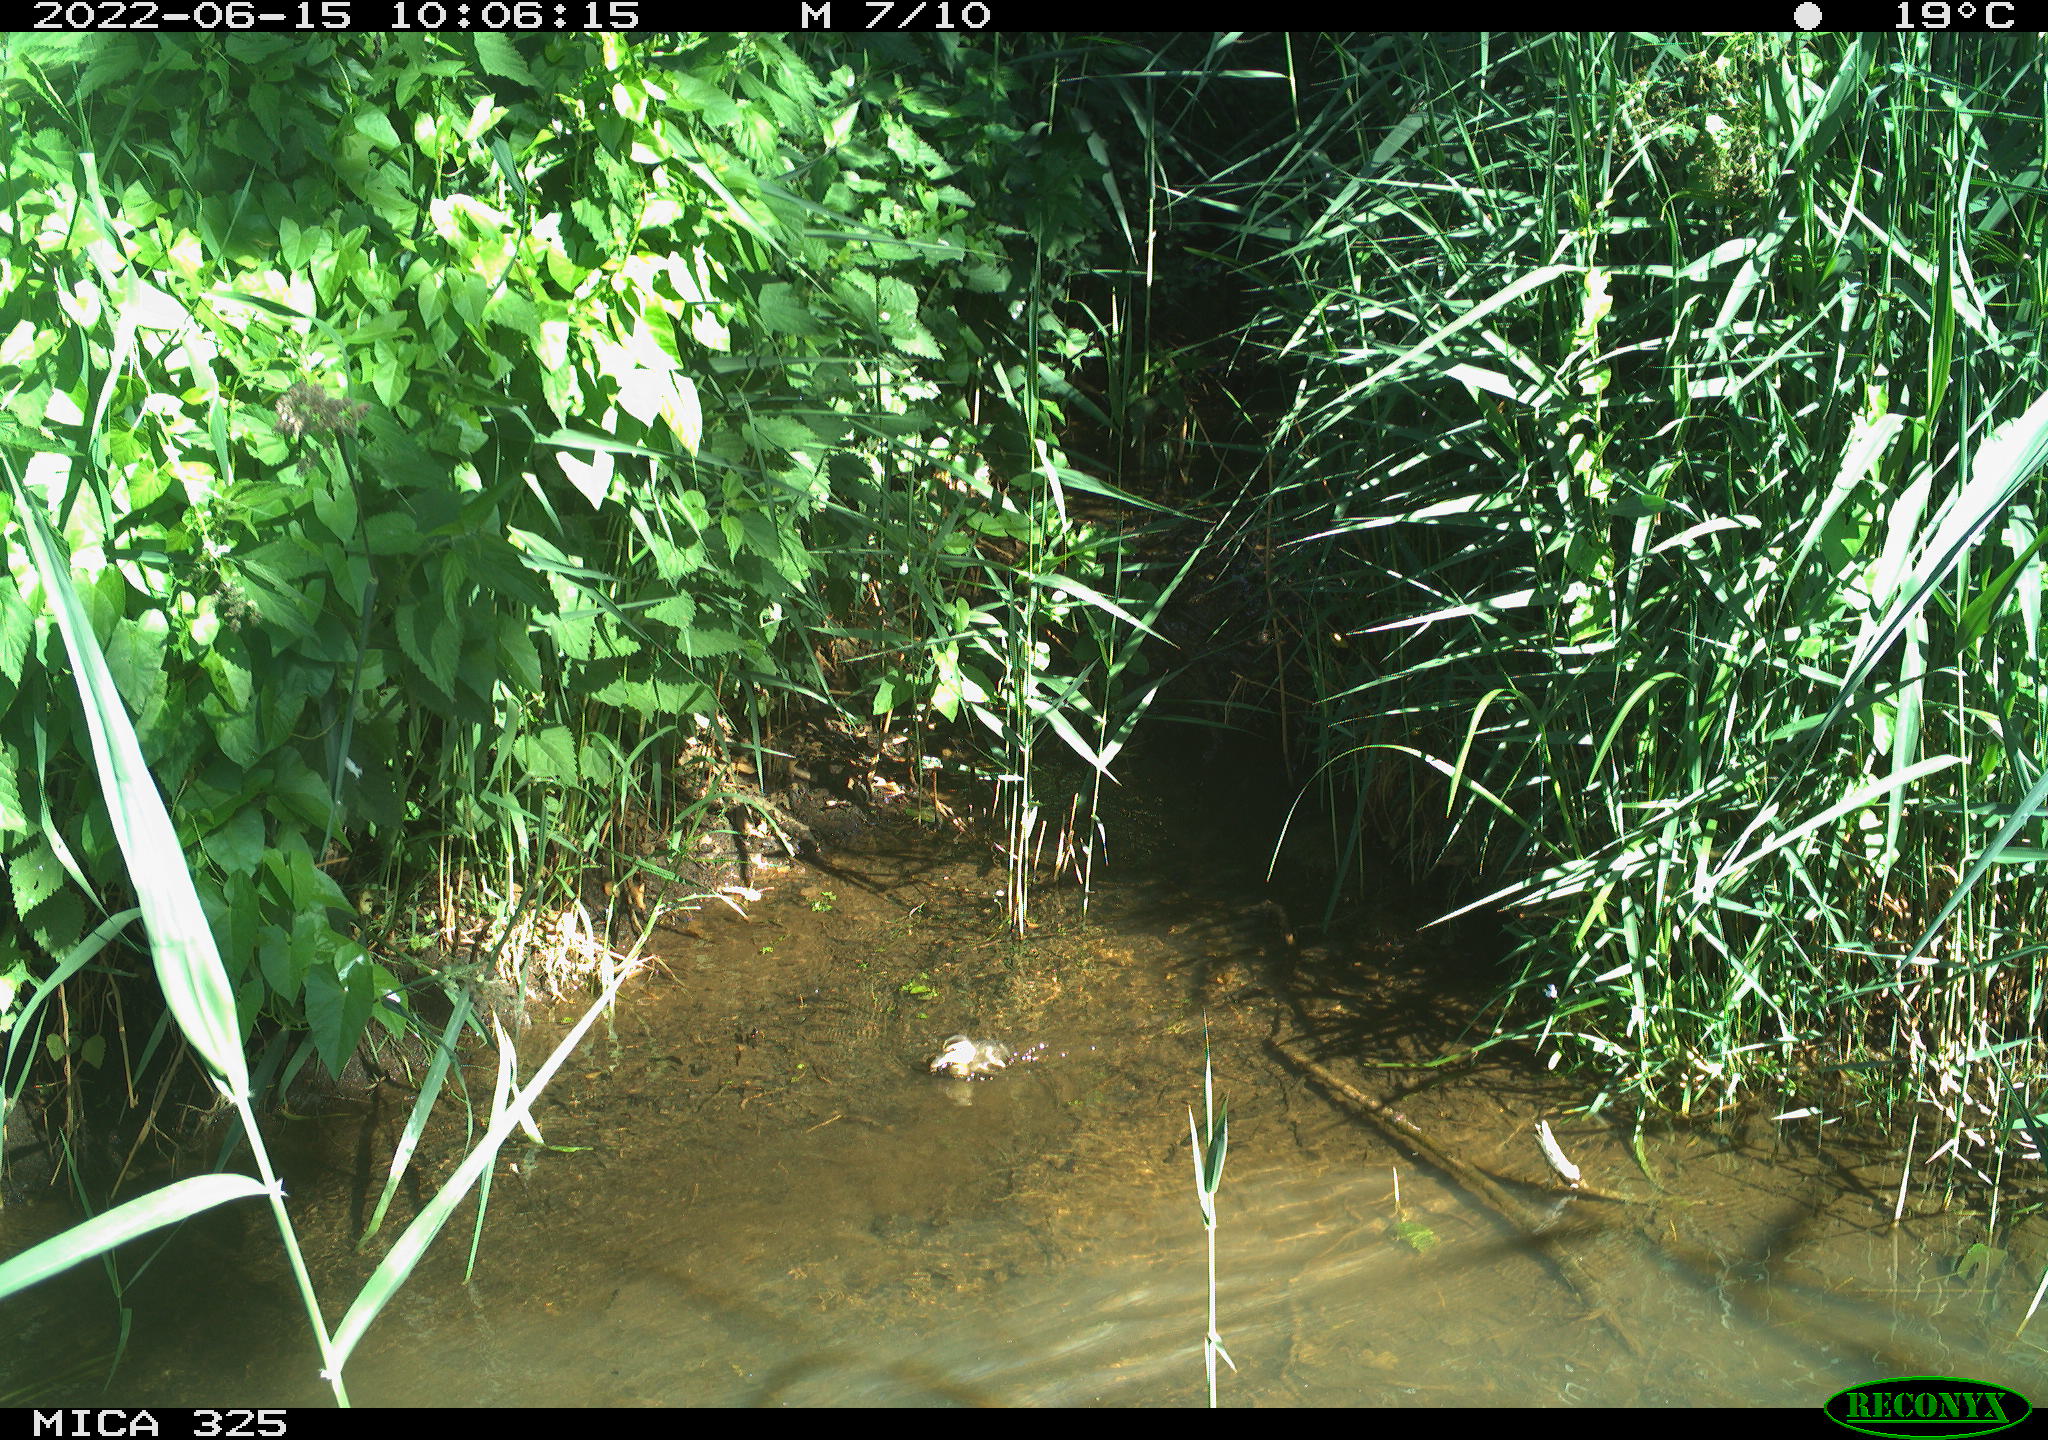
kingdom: Animalia
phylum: Chordata
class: Aves
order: Anseriformes
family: Anatidae
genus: Anas
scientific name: Anas platyrhynchos
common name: Mallard
